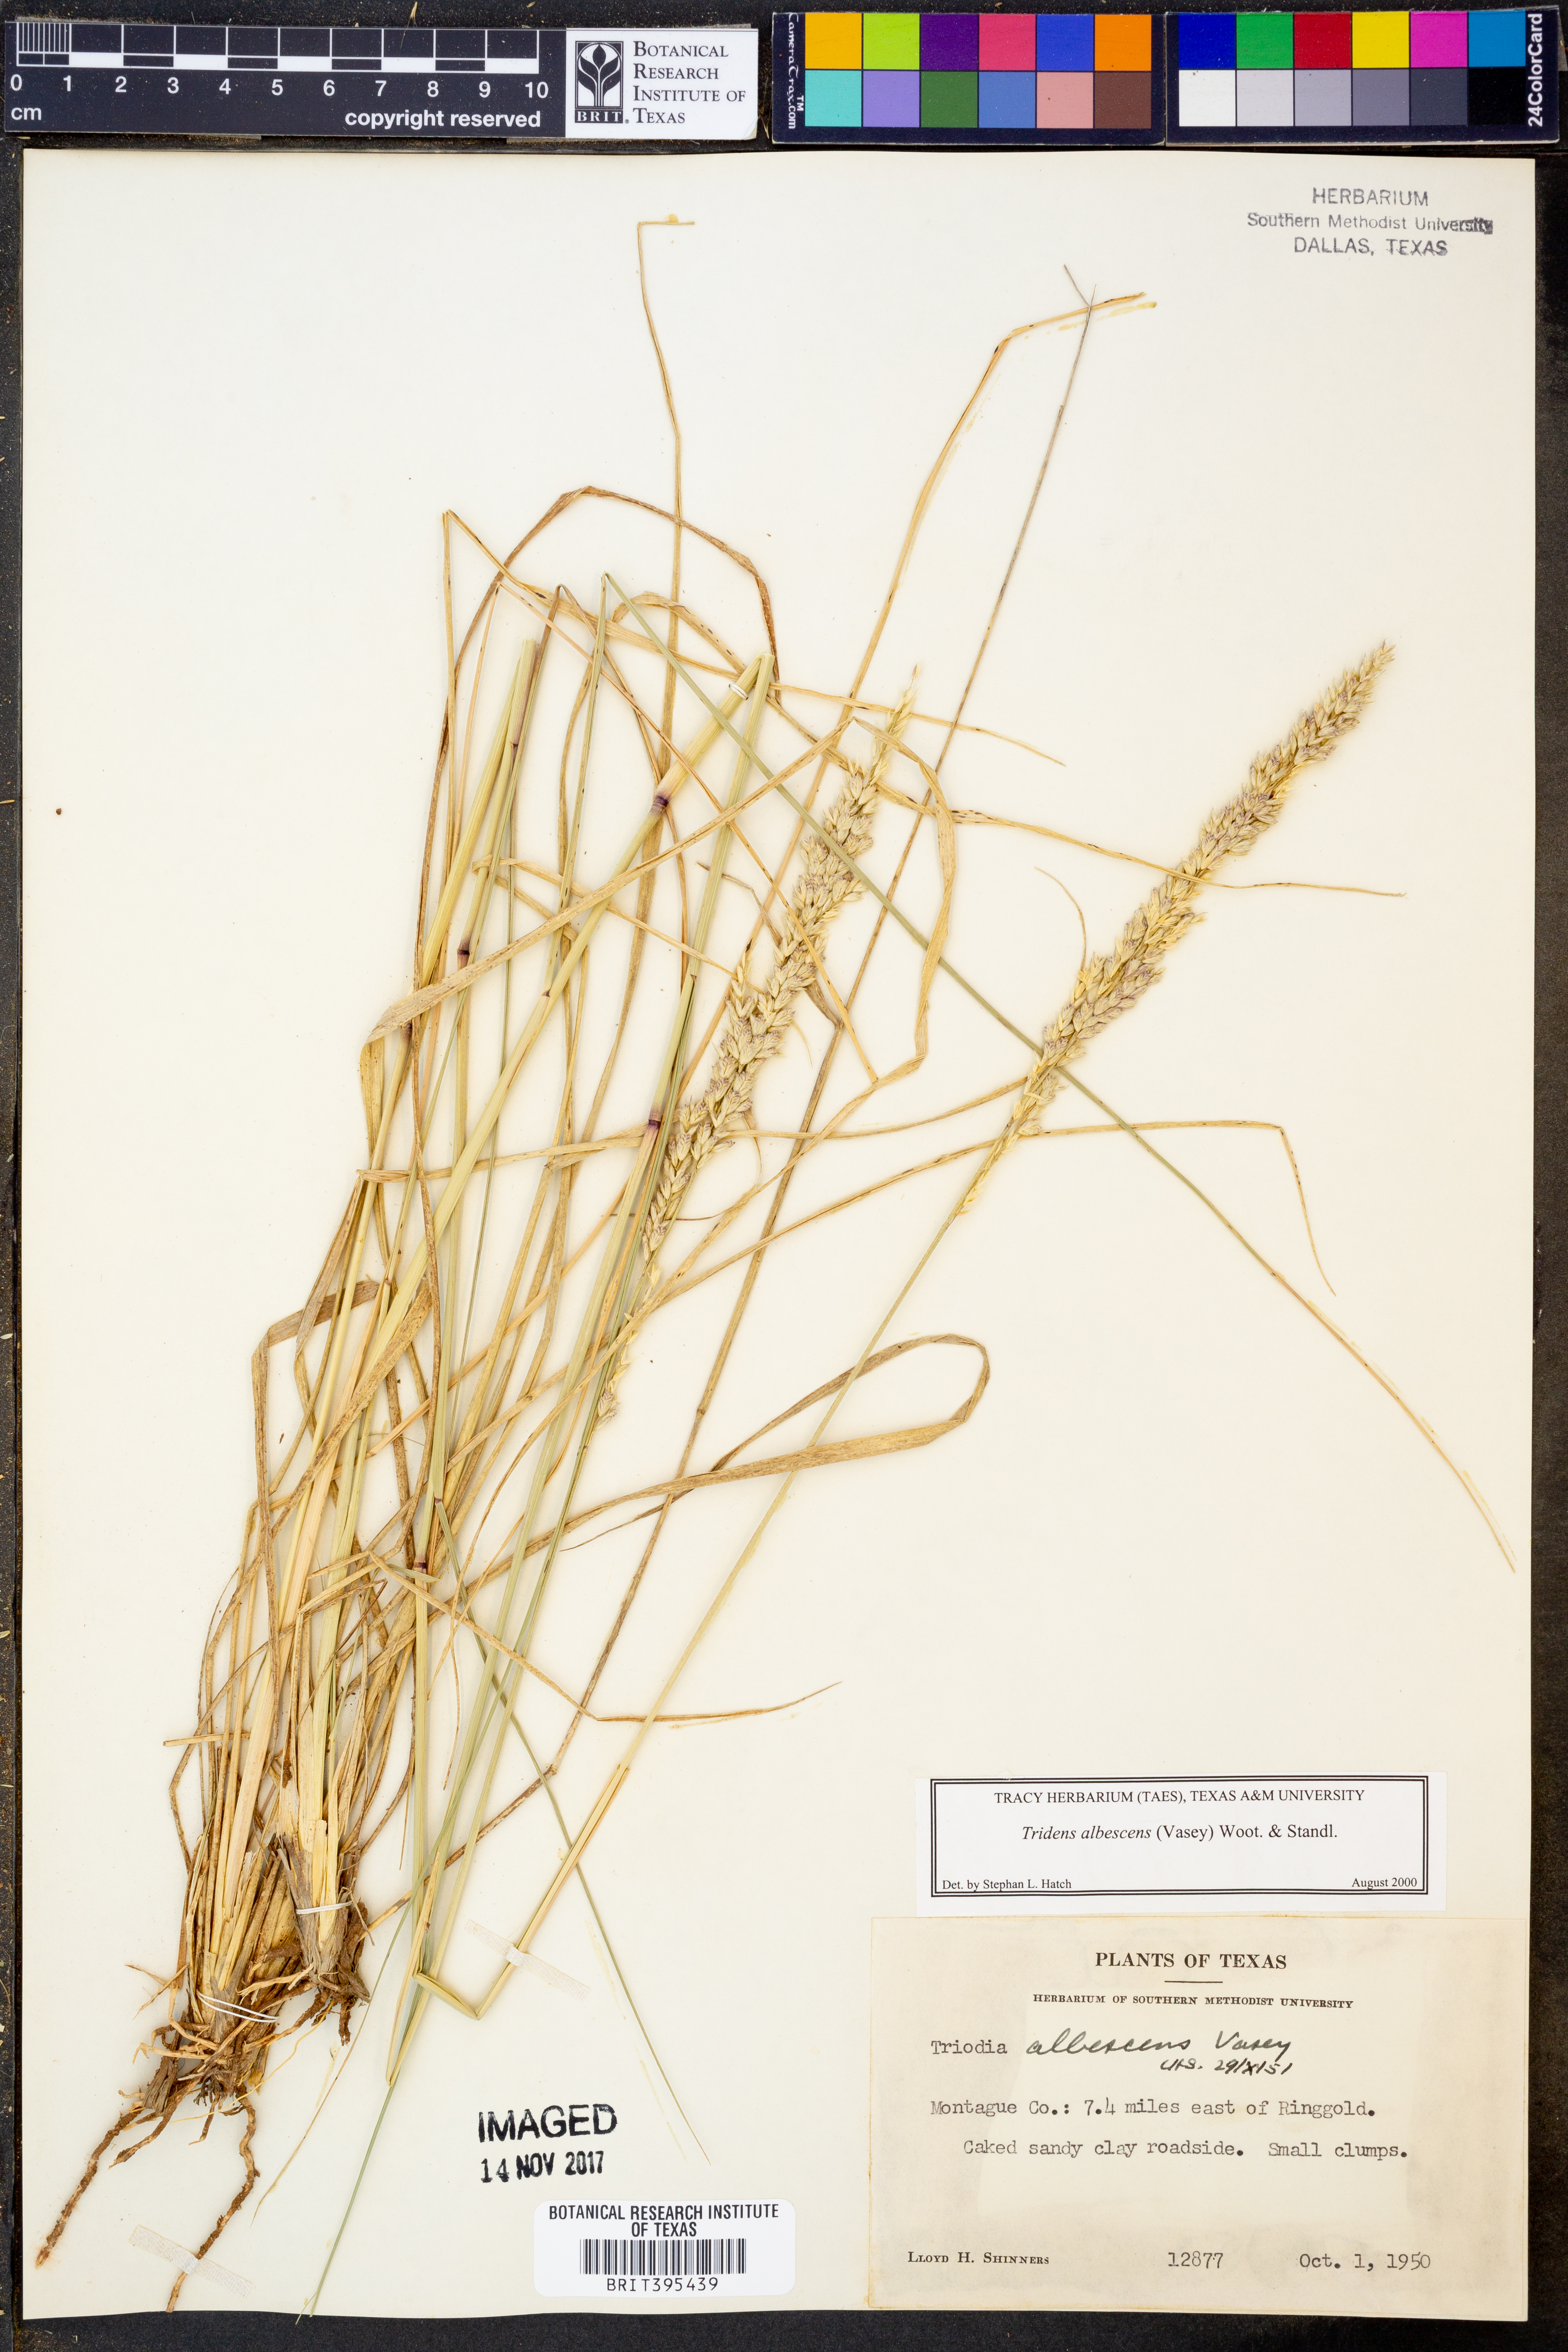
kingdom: Plantae
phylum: Tracheophyta
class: Liliopsida
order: Poales
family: Poaceae
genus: Tridens
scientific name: Tridens albescens
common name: White tridens
